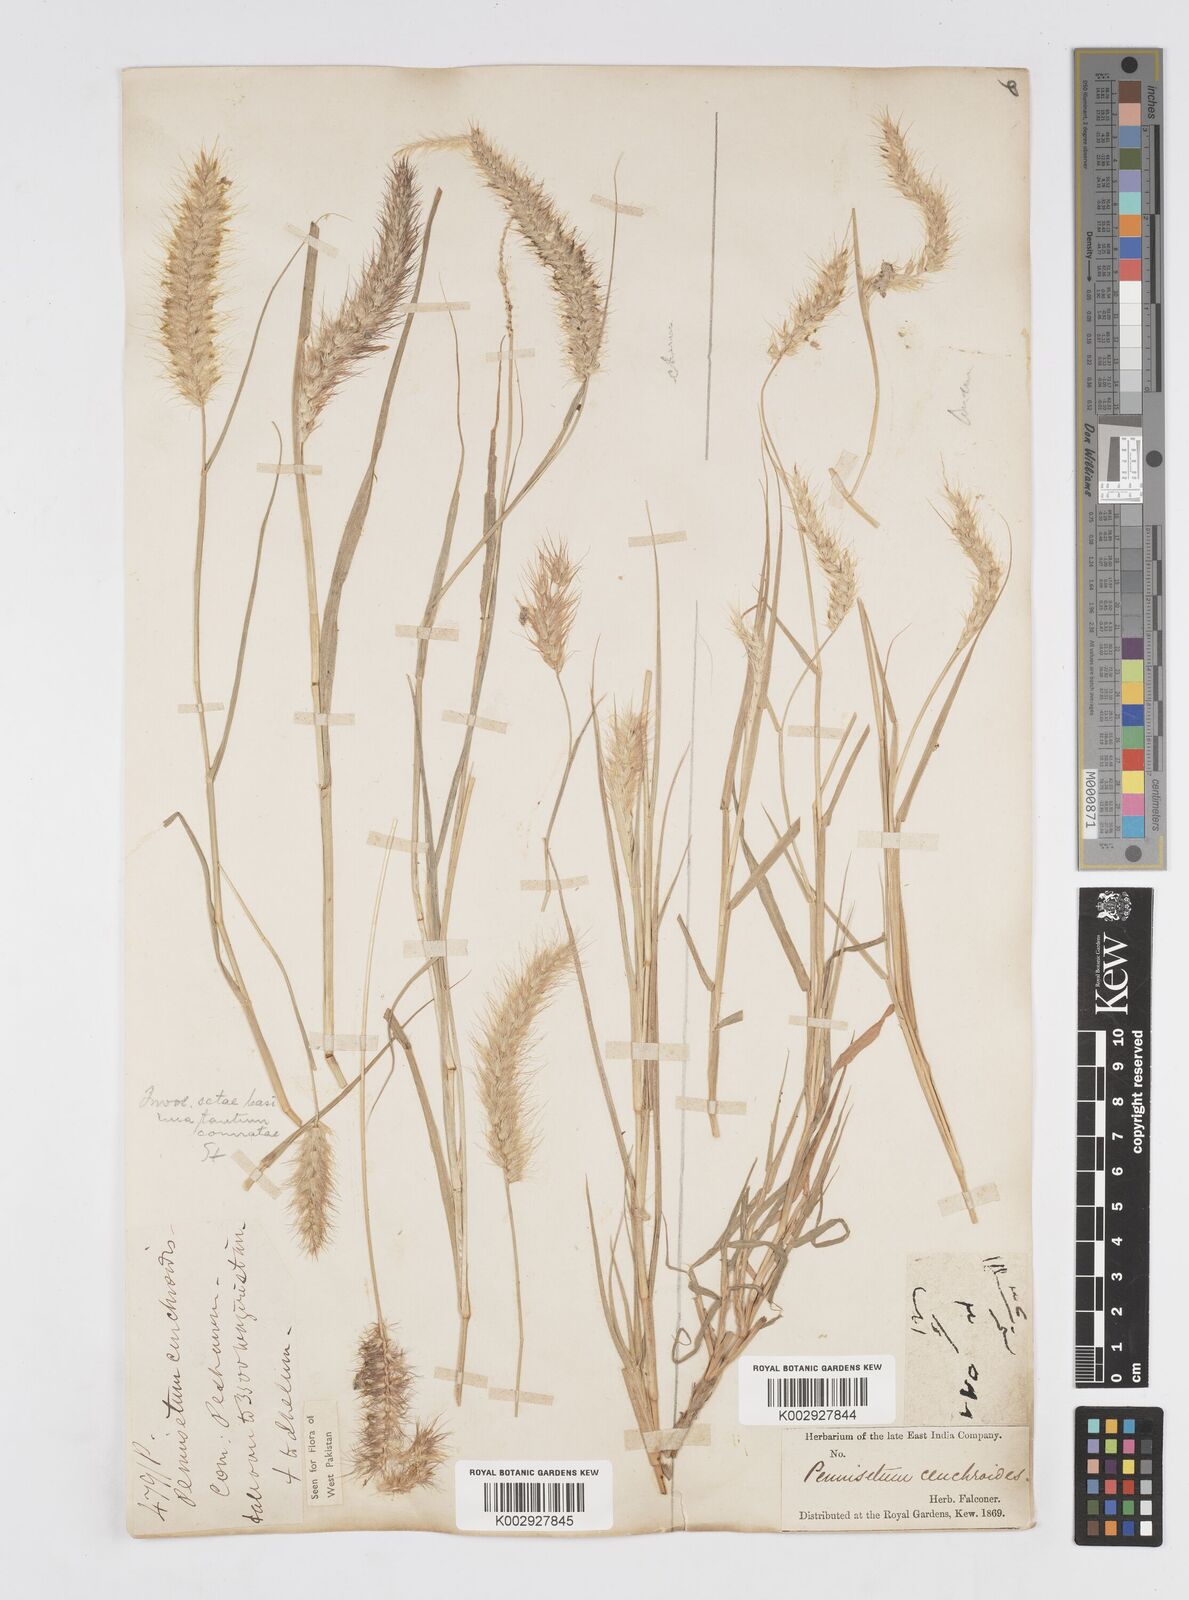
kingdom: Plantae
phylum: Tracheophyta
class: Liliopsida
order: Poales
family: Poaceae
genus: Cenchrus
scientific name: Cenchrus ciliaris
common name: Buffelgrass
